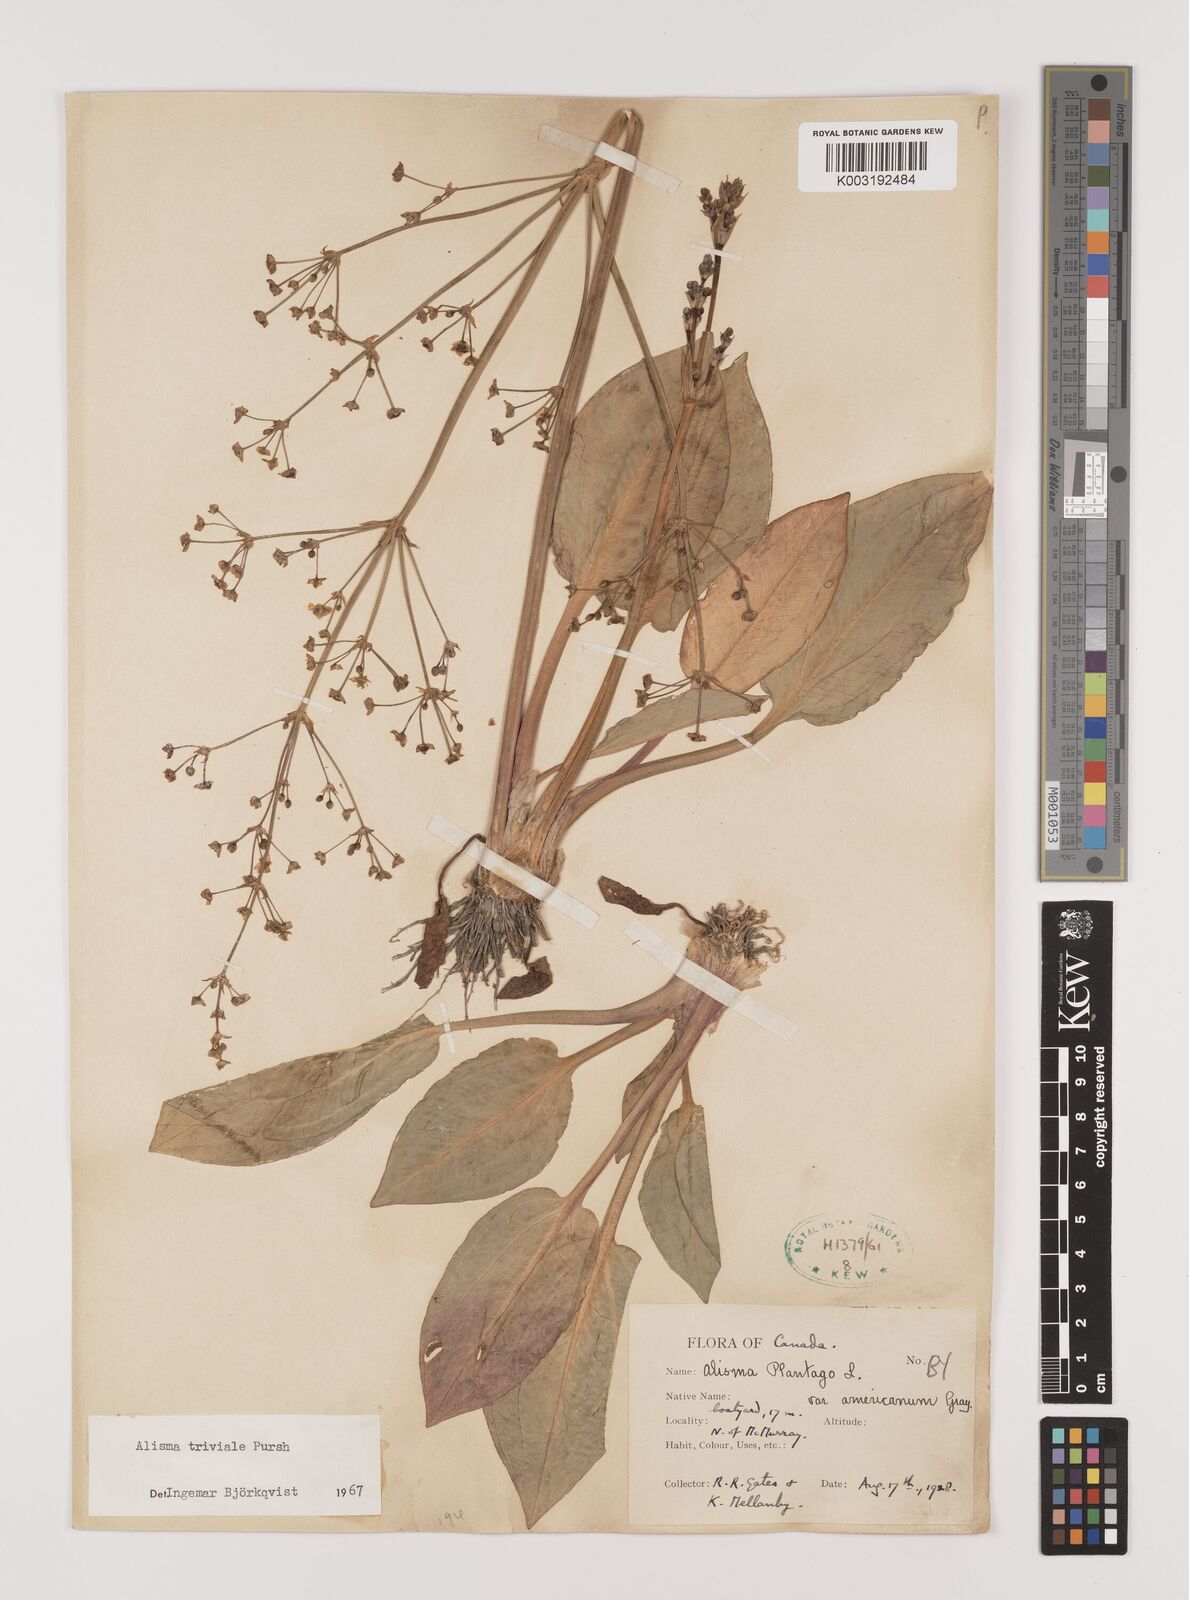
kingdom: Plantae
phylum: Tracheophyta
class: Liliopsida
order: Alismatales
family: Alismataceae
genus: Alisma
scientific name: Alisma triviale
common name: Northern water-plantain
